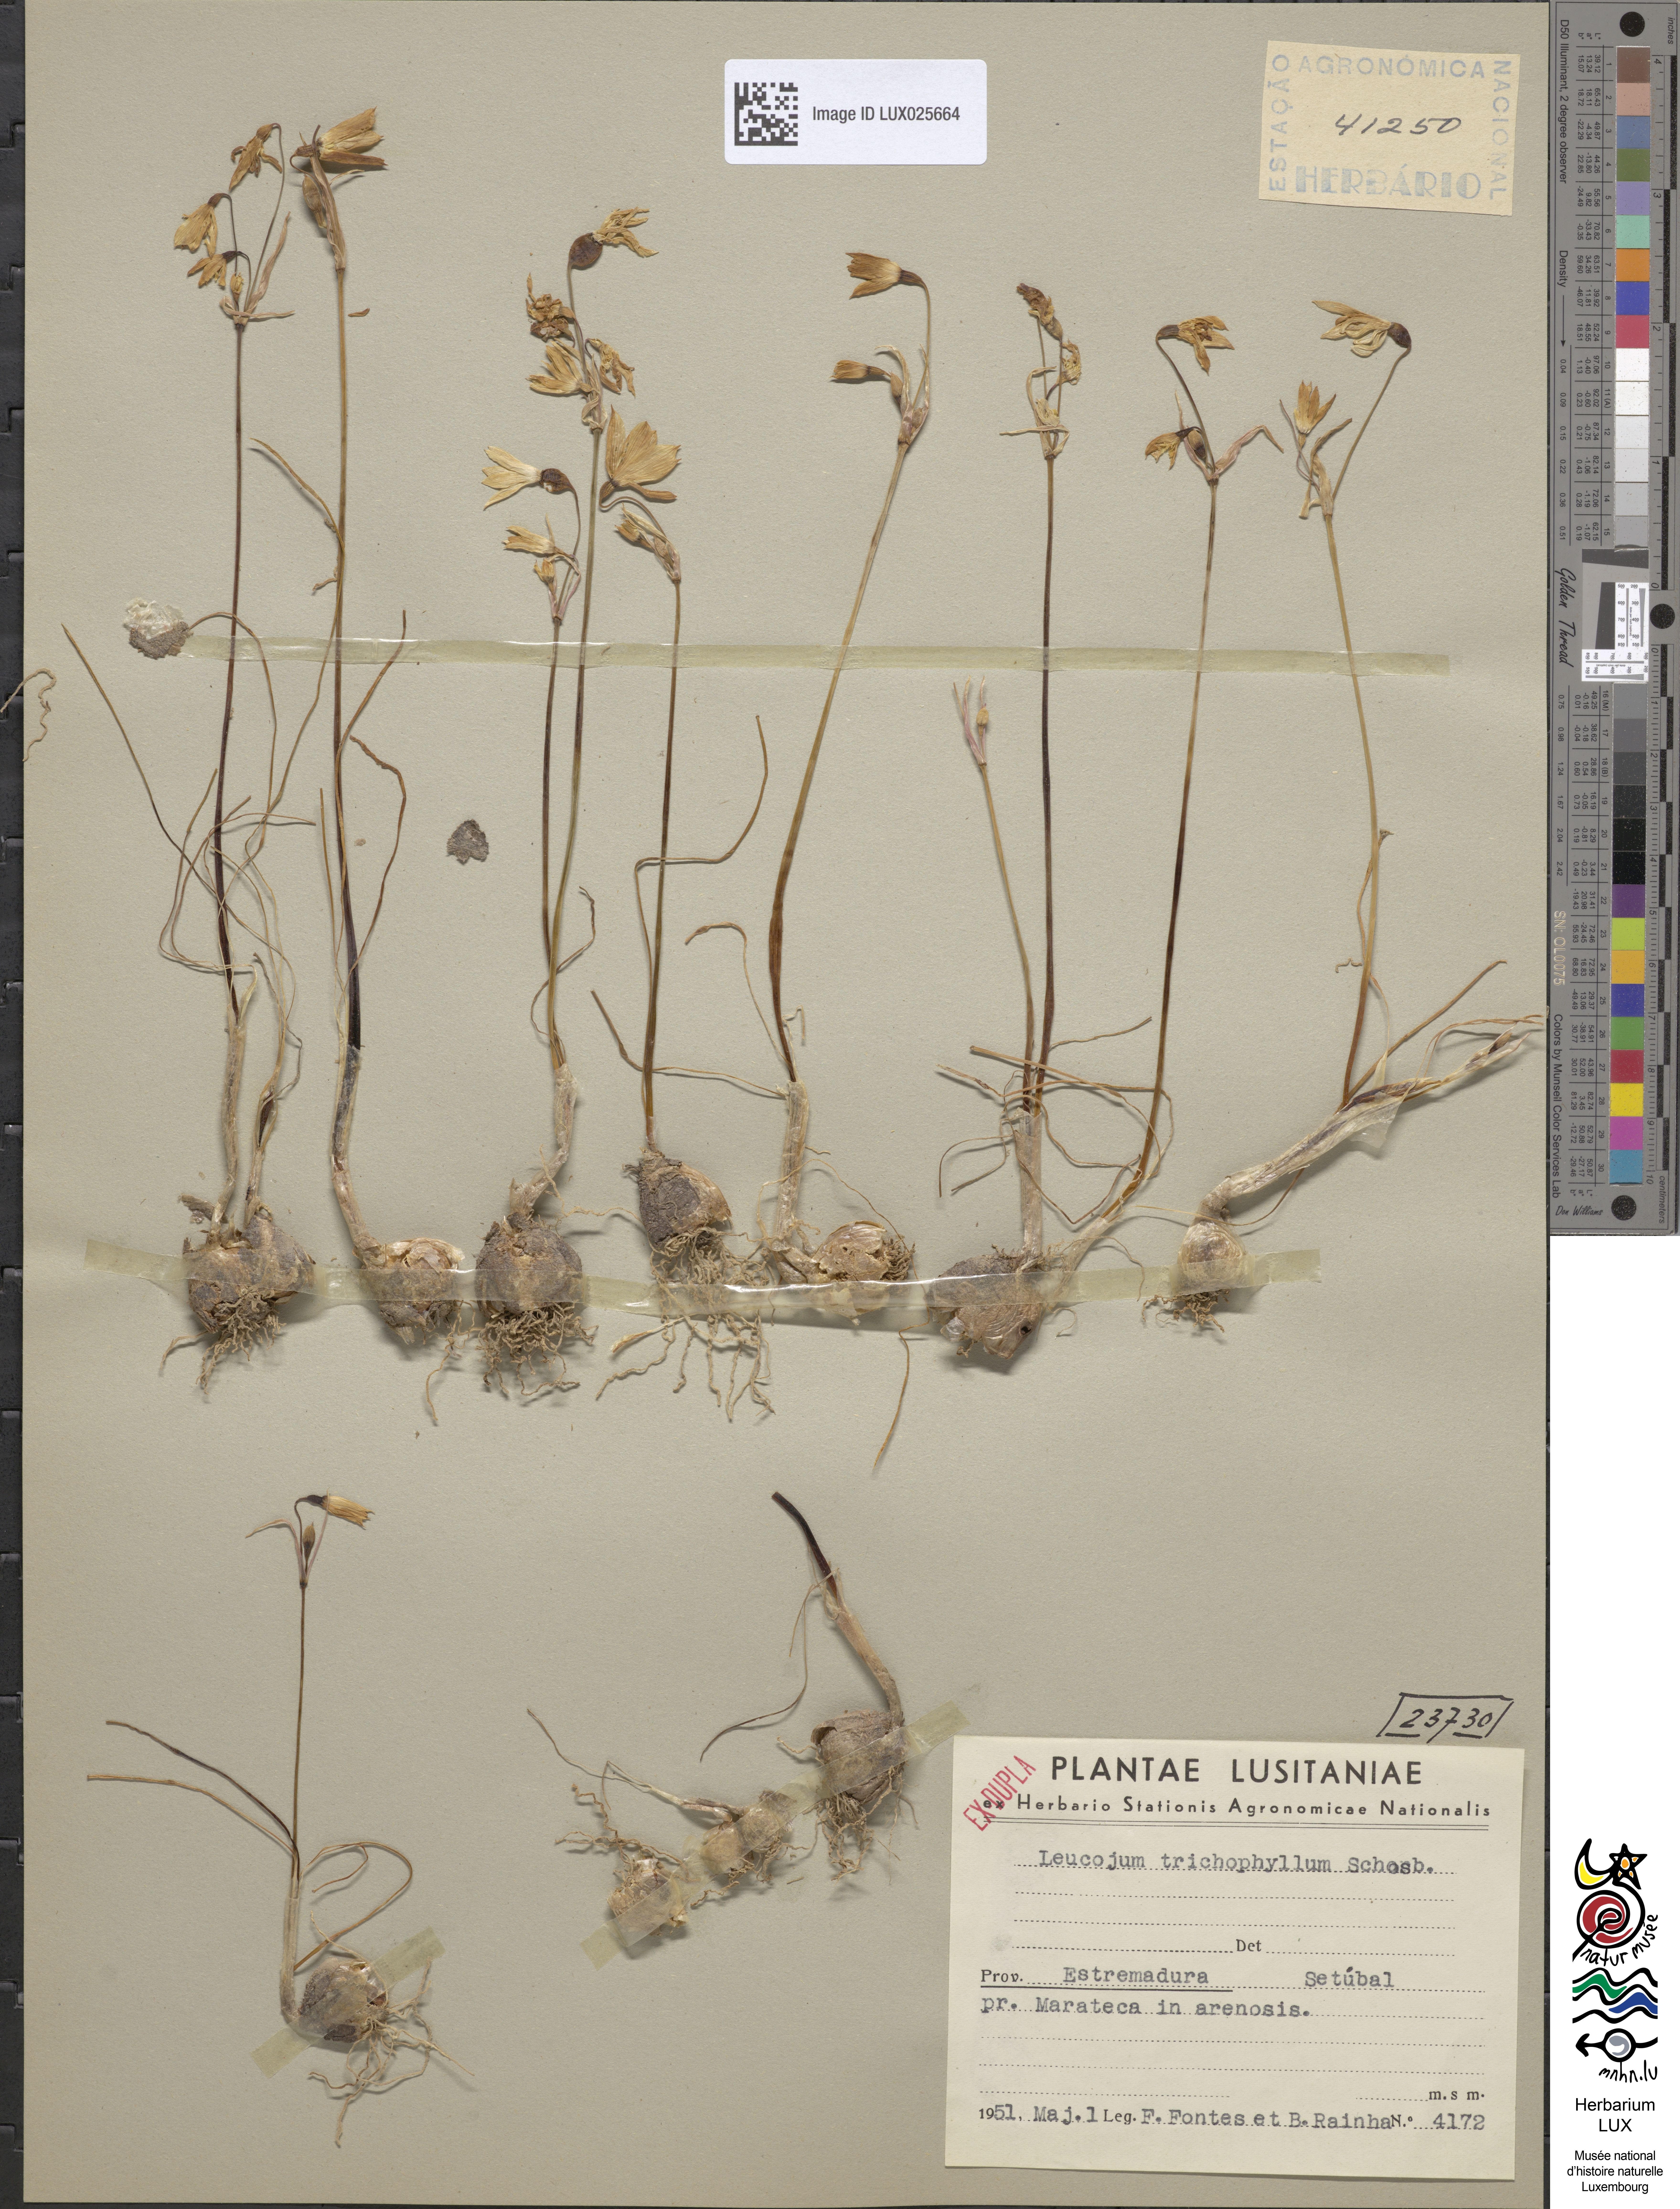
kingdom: Plantae
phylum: Tracheophyta
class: Liliopsida
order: Asparagales
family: Amaryllidaceae
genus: Acis
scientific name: Acis trichophylla
